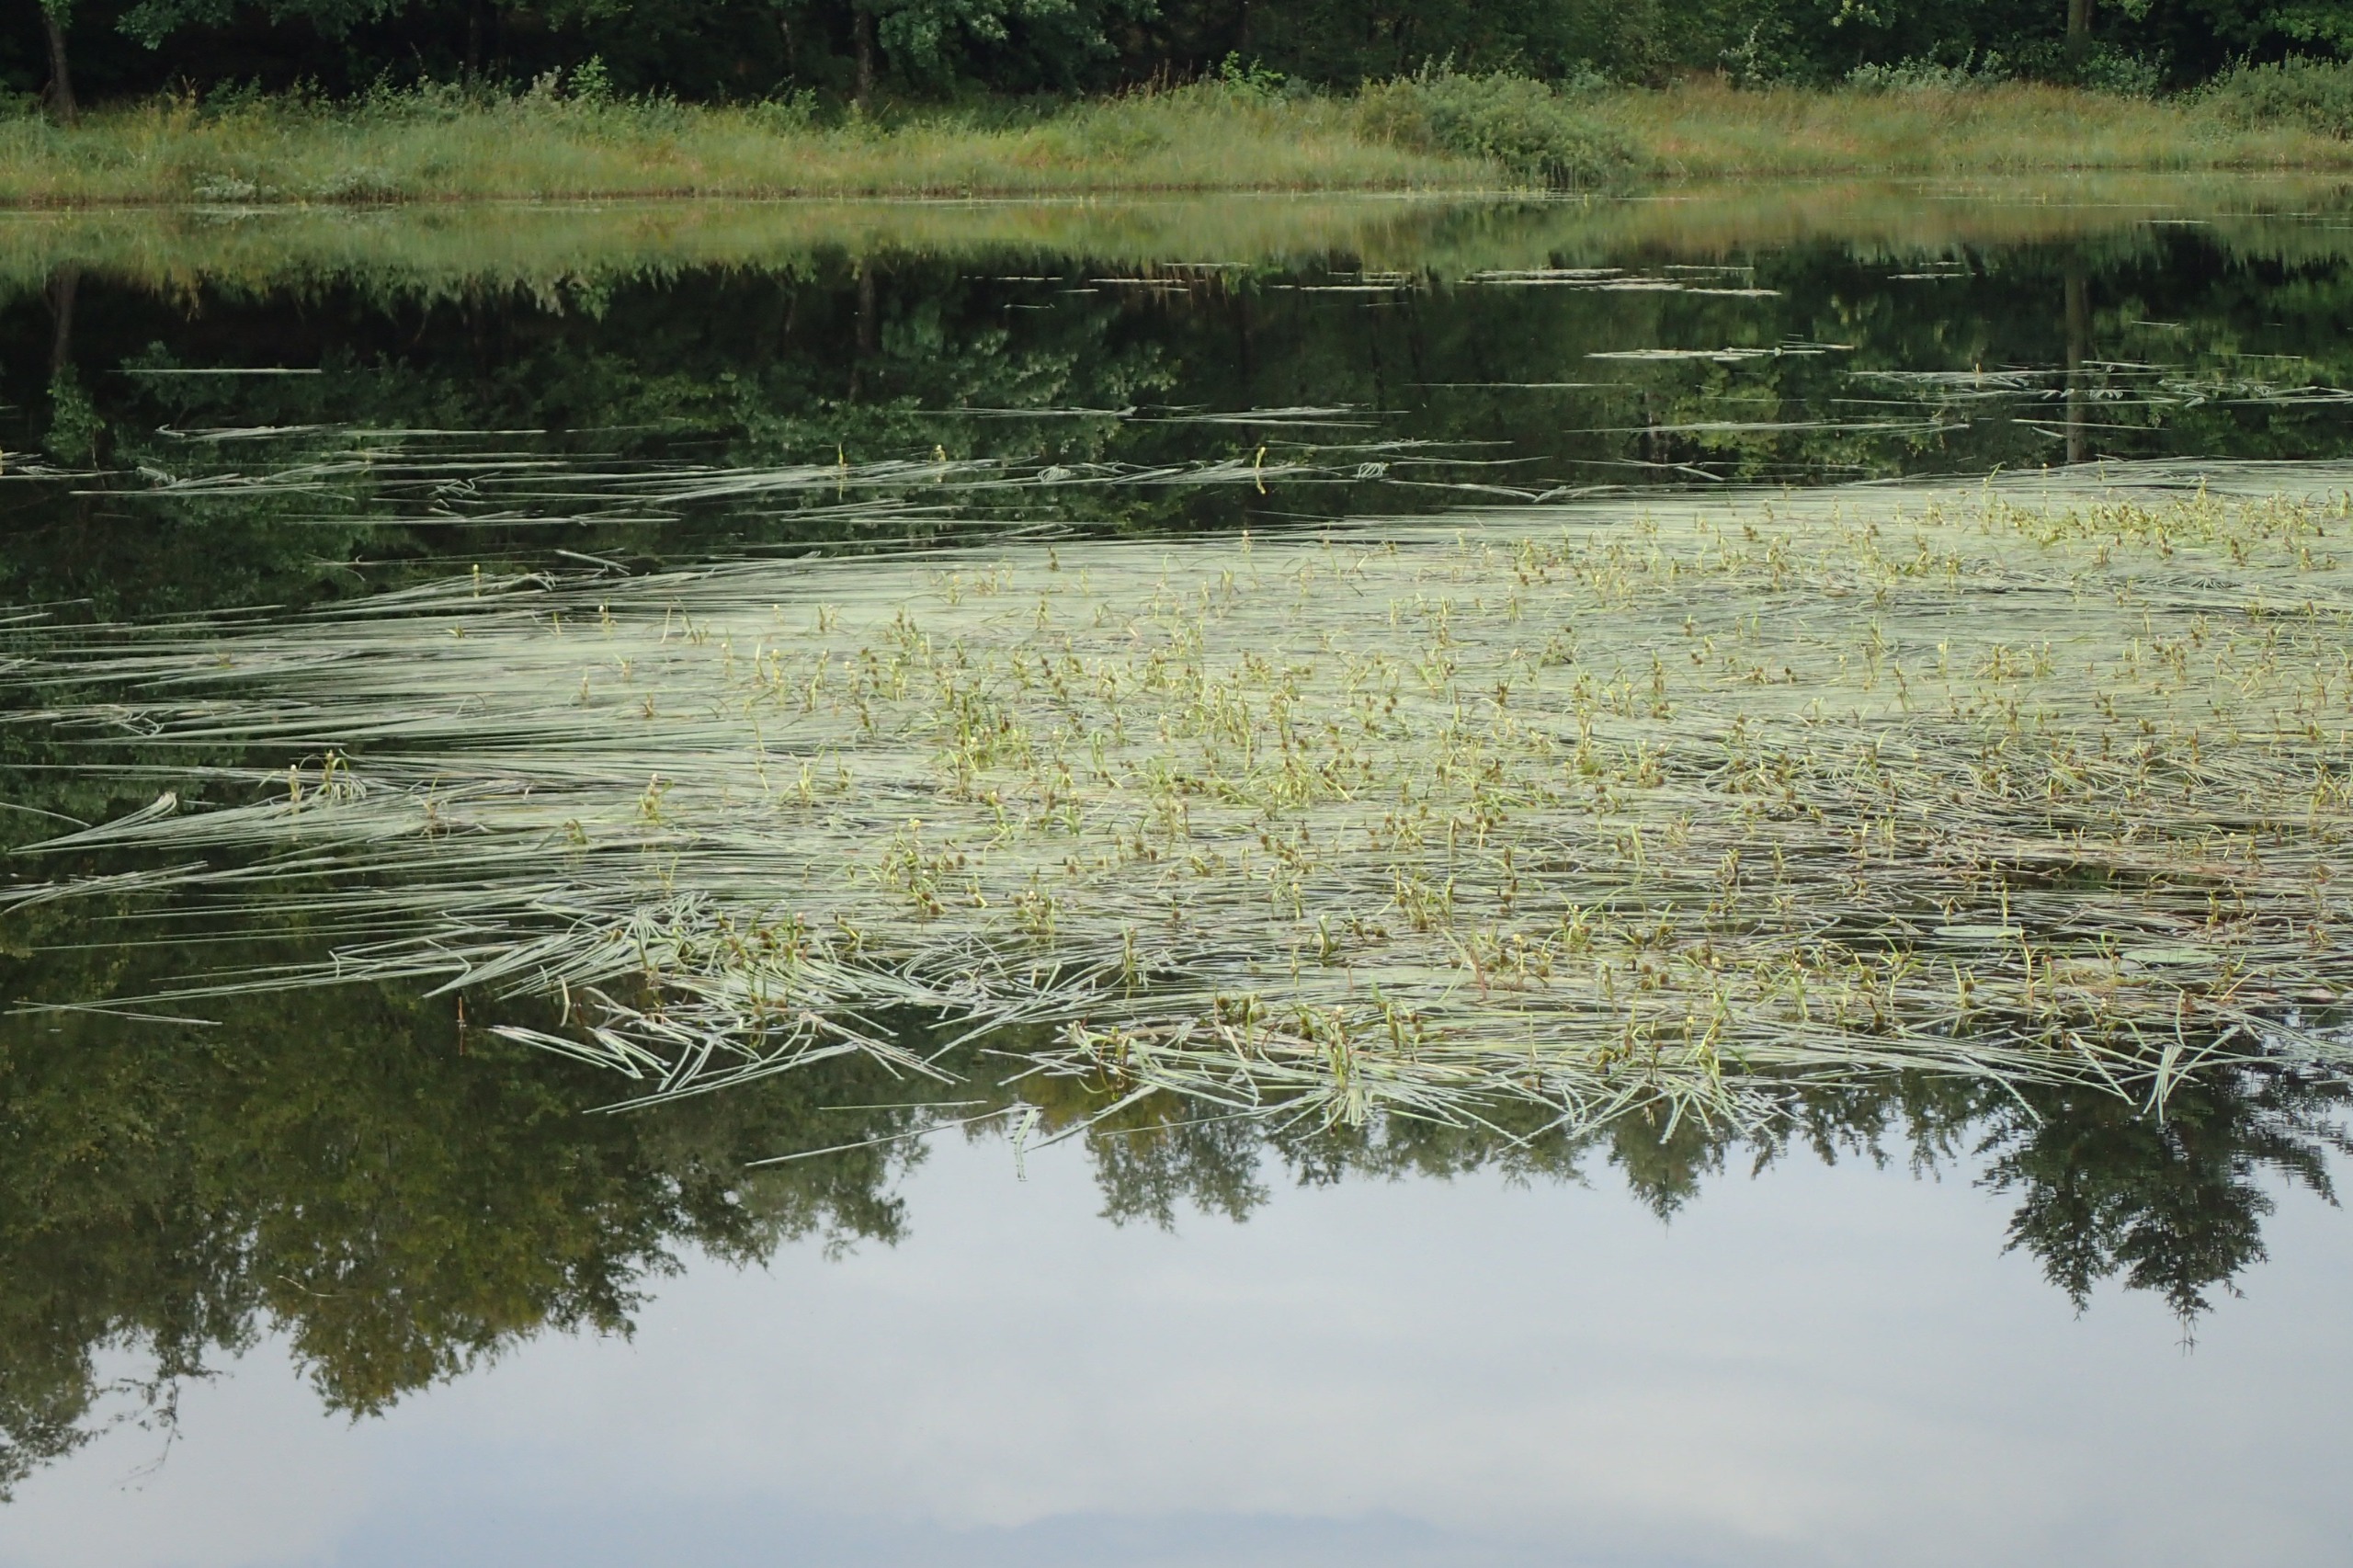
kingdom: Plantae
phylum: Tracheophyta
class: Liliopsida
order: Poales
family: Typhaceae
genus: Sparganium
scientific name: Sparganium angustifolium
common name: Smalbladet pindsvineknop
